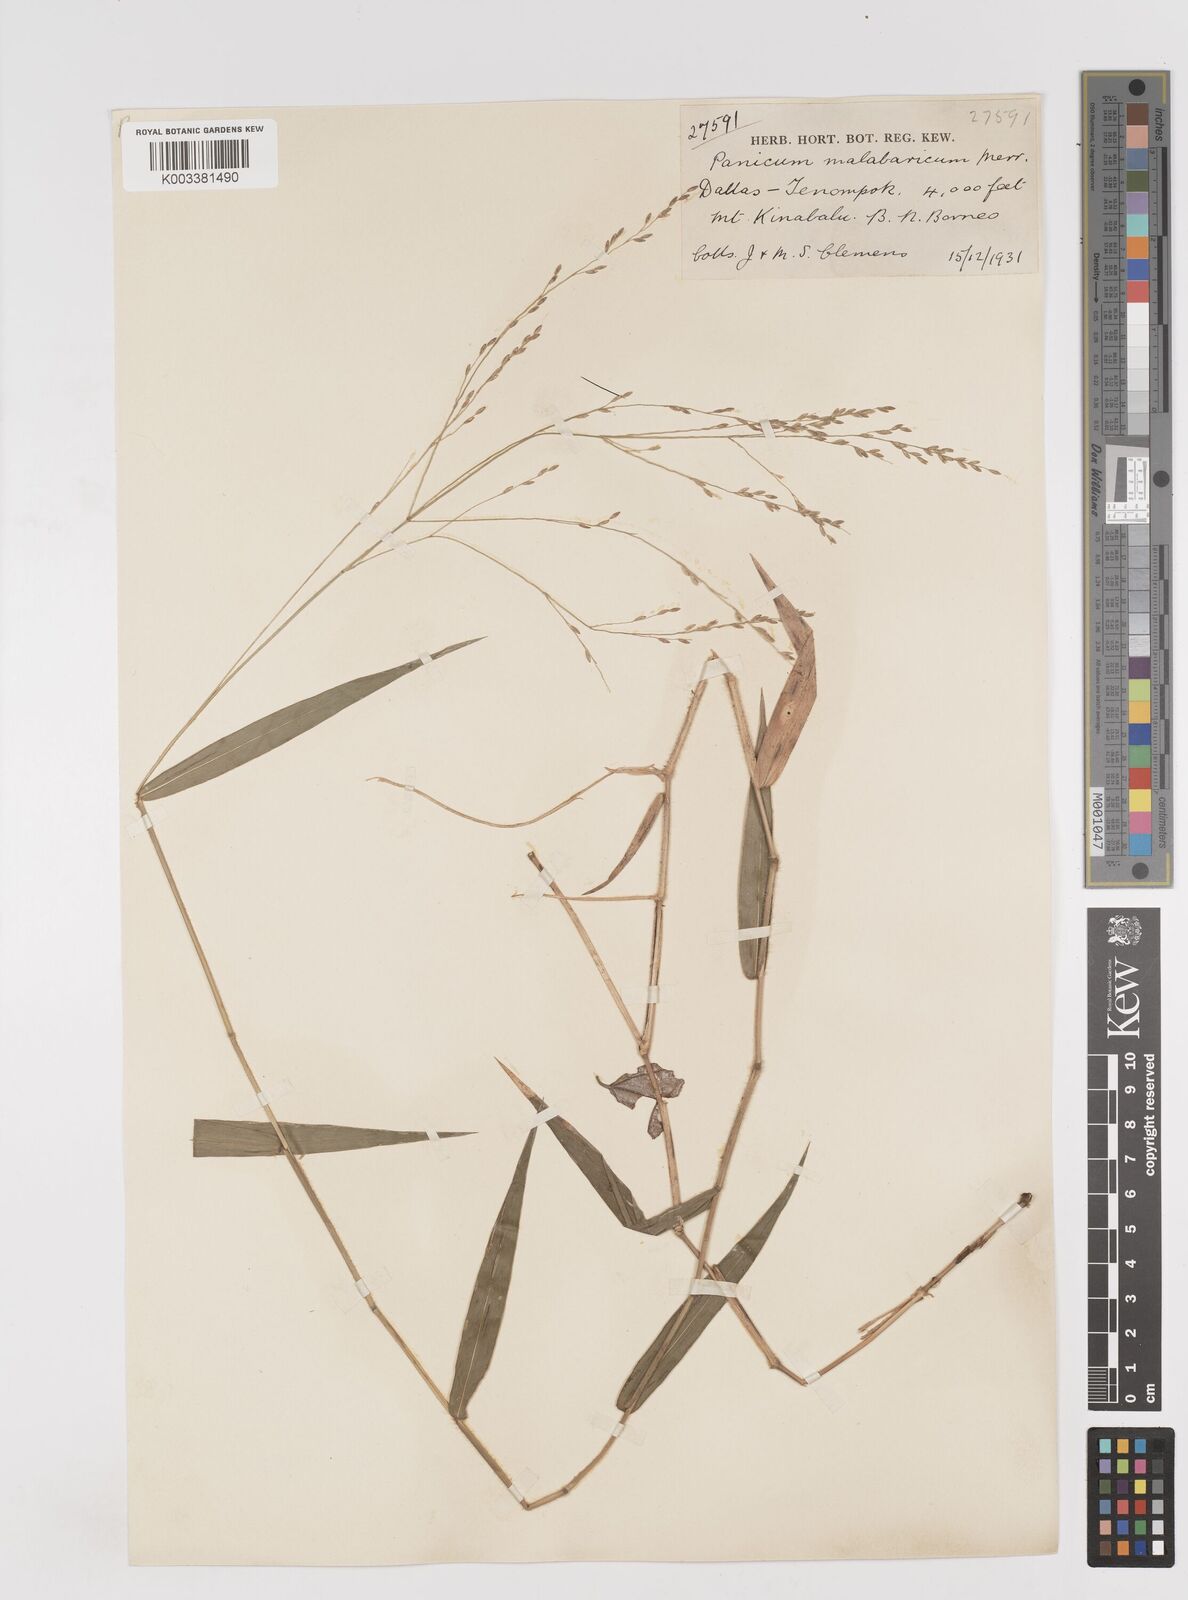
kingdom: Plantae
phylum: Tracheophyta
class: Liliopsida
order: Poales
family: Poaceae
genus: Ottochloa
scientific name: Ottochloa nodosa
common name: Slender-panic grass
